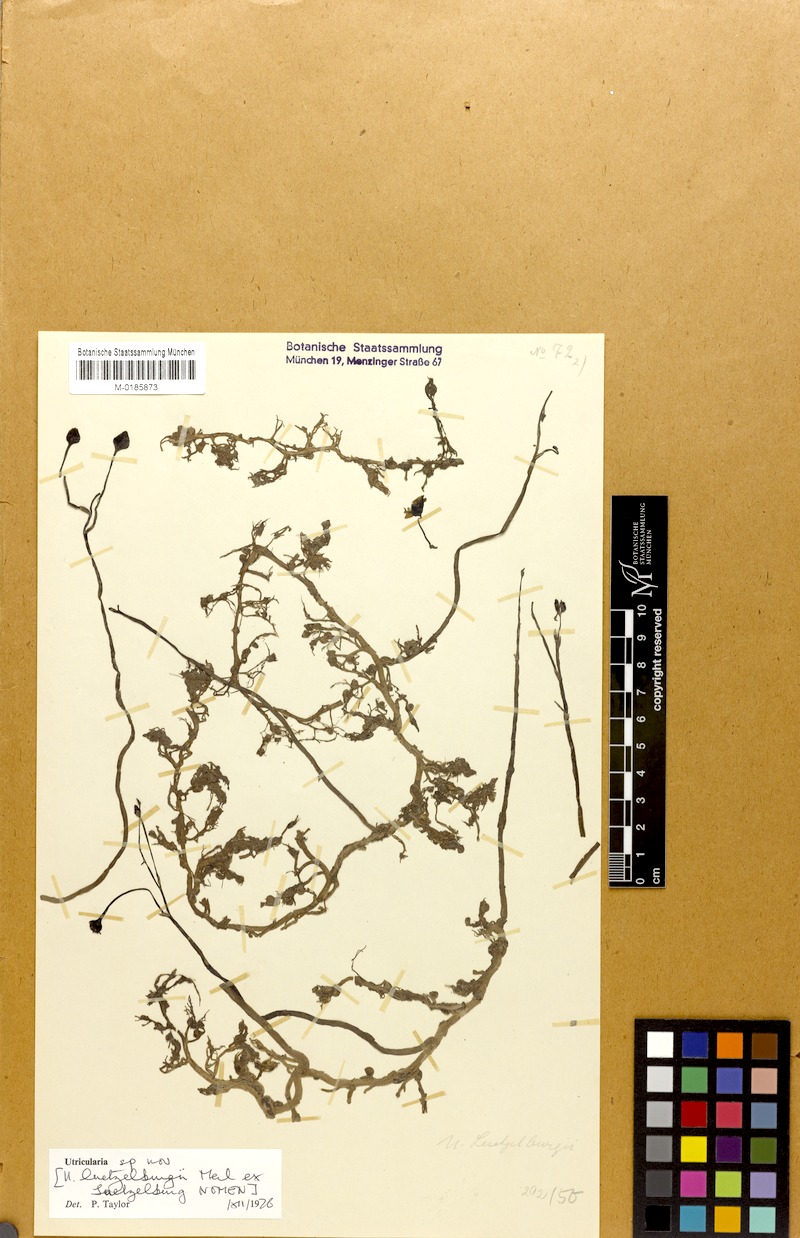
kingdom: Plantae
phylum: Tracheophyta
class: Magnoliopsida
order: Lamiales
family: Lentibulariaceae
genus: Utricularia
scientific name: Utricularia poconensis
